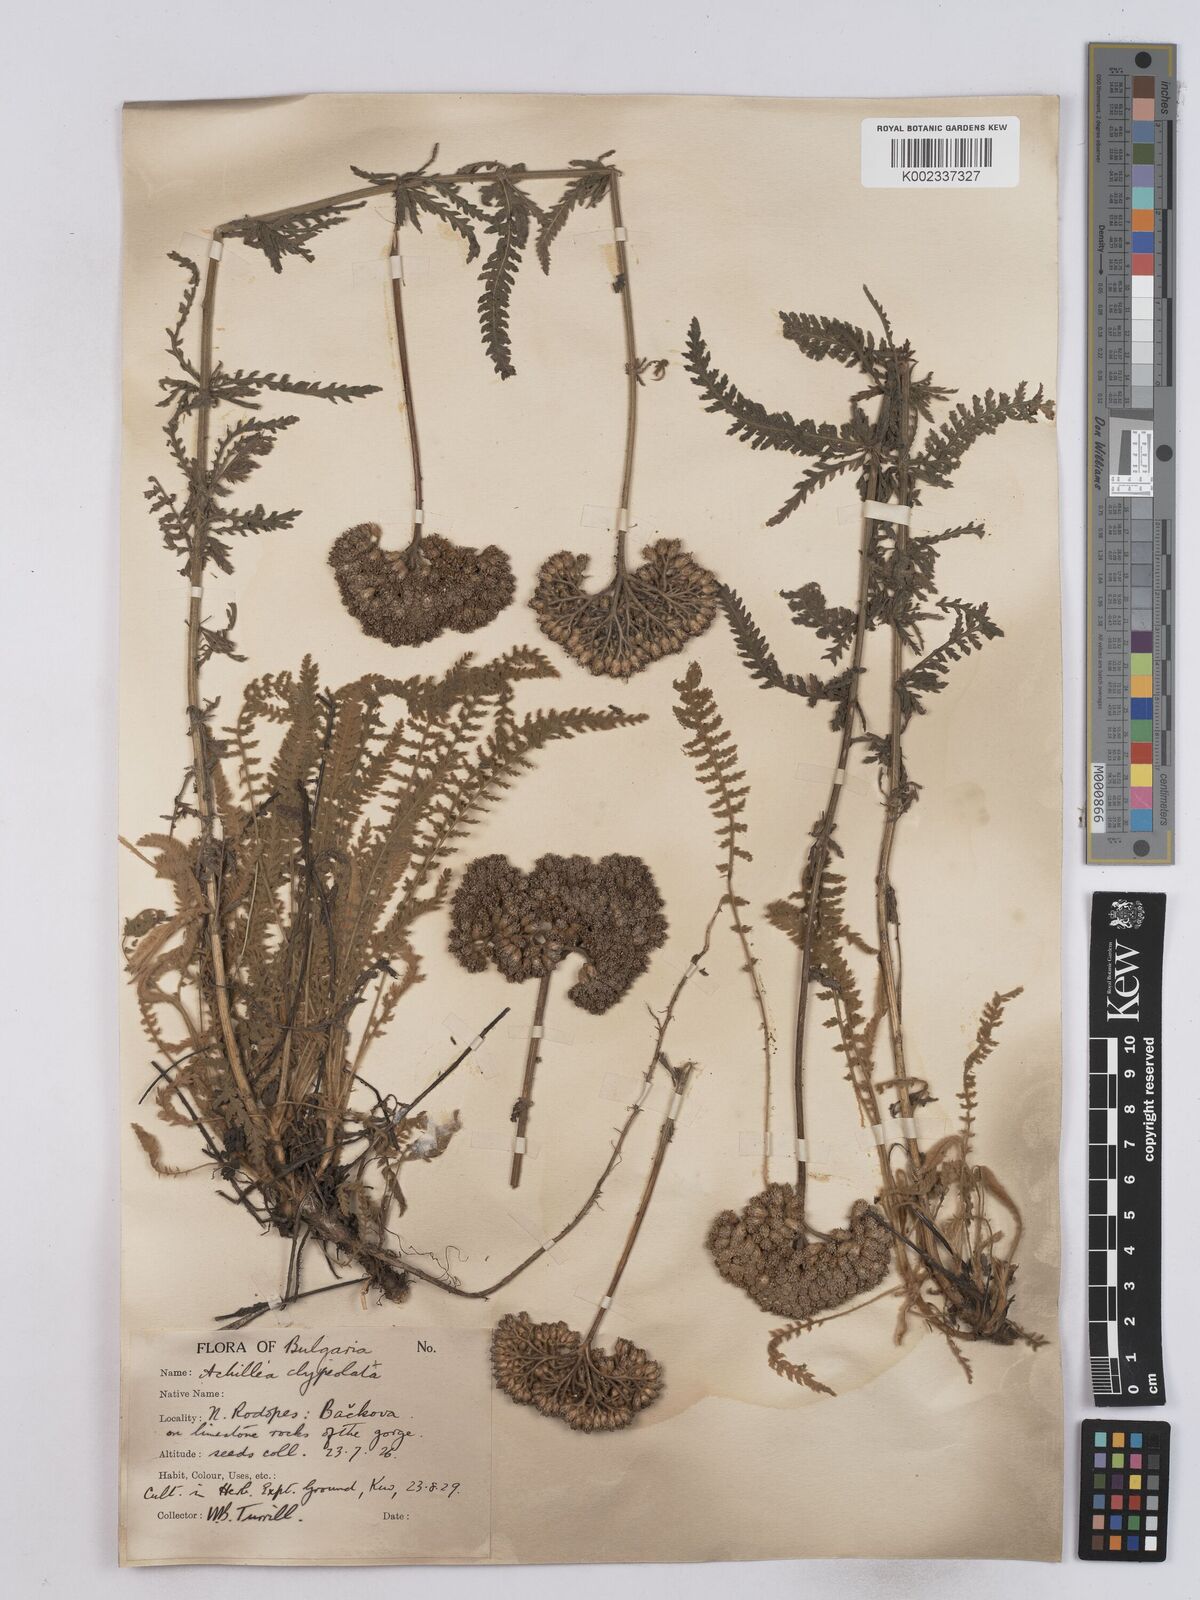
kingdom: Plantae
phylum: Tracheophyta
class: Magnoliopsida
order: Asterales
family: Asteraceae
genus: Achillea
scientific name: Achillea clypeolata
